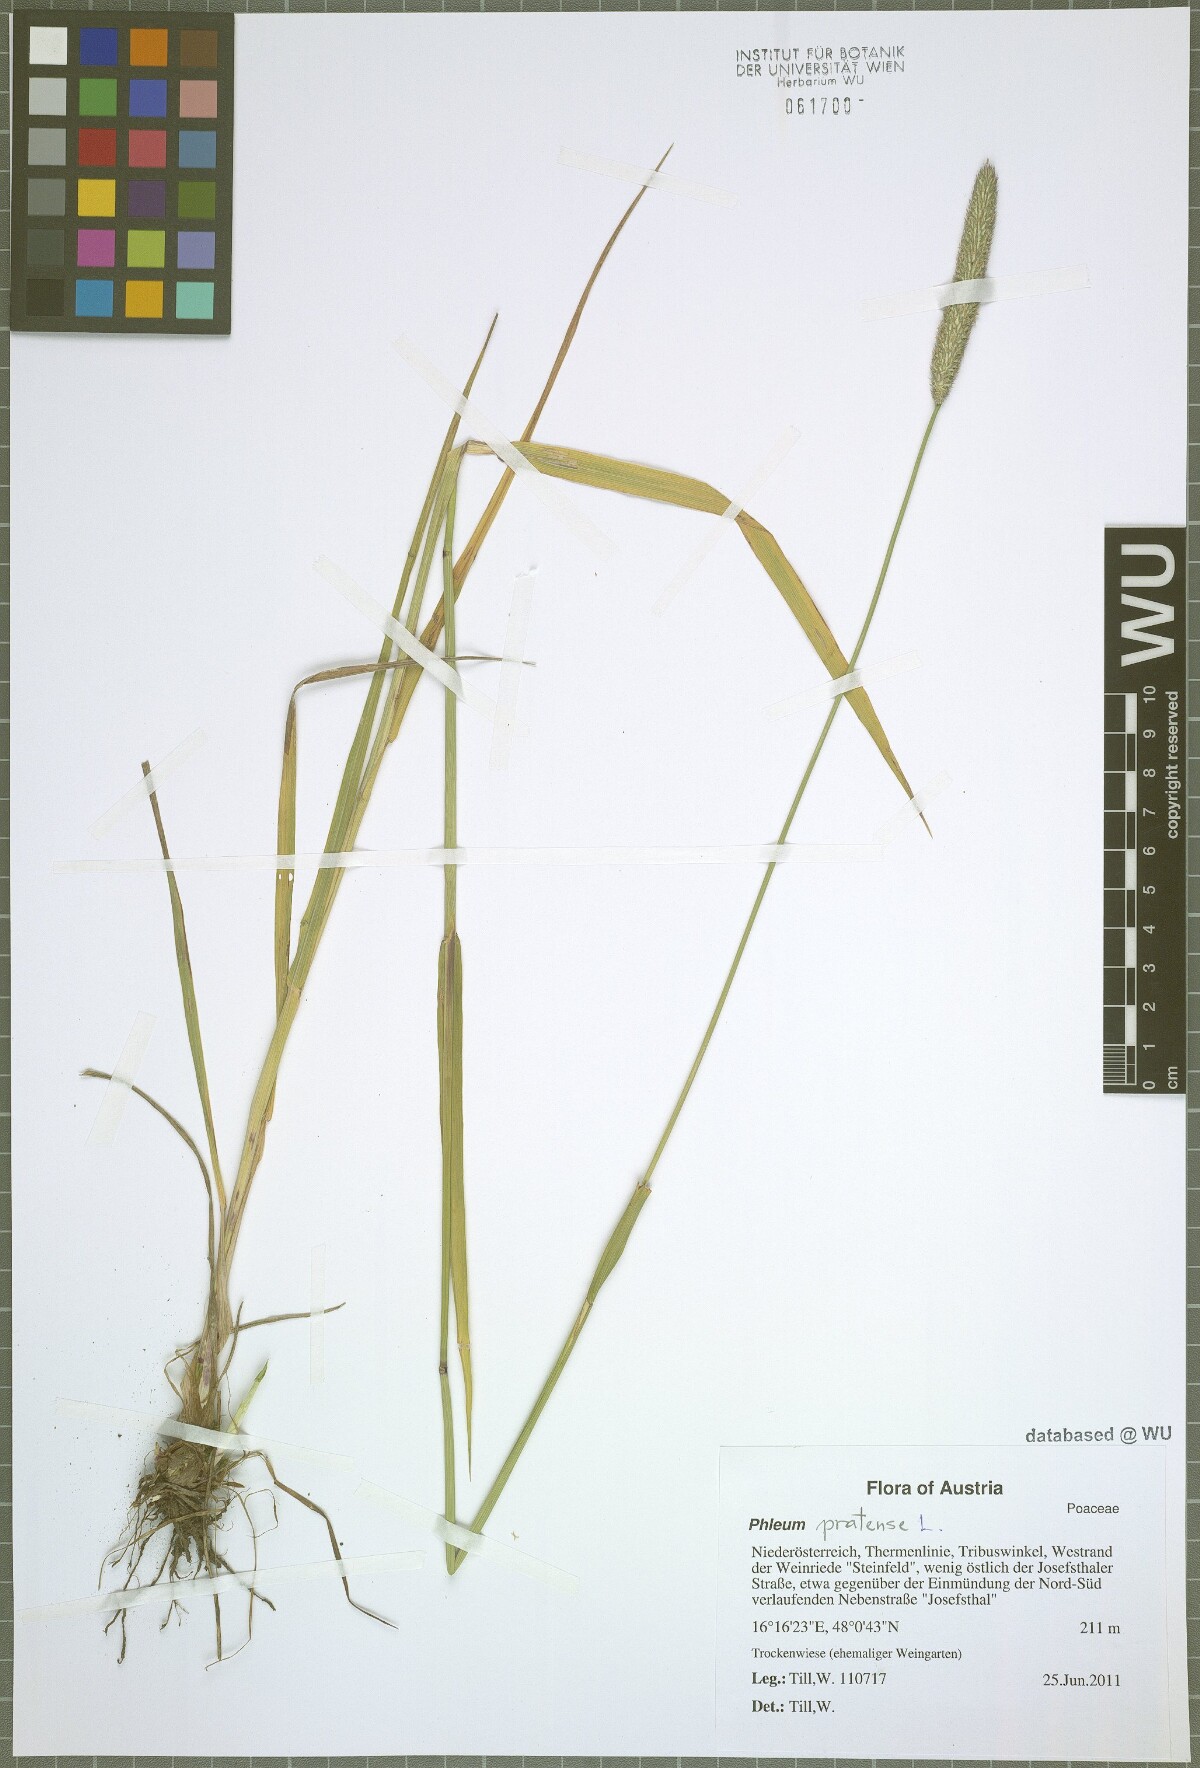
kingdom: Plantae
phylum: Tracheophyta
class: Liliopsida
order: Poales
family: Poaceae
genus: Phleum
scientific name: Phleum pratense
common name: Timothy grass
